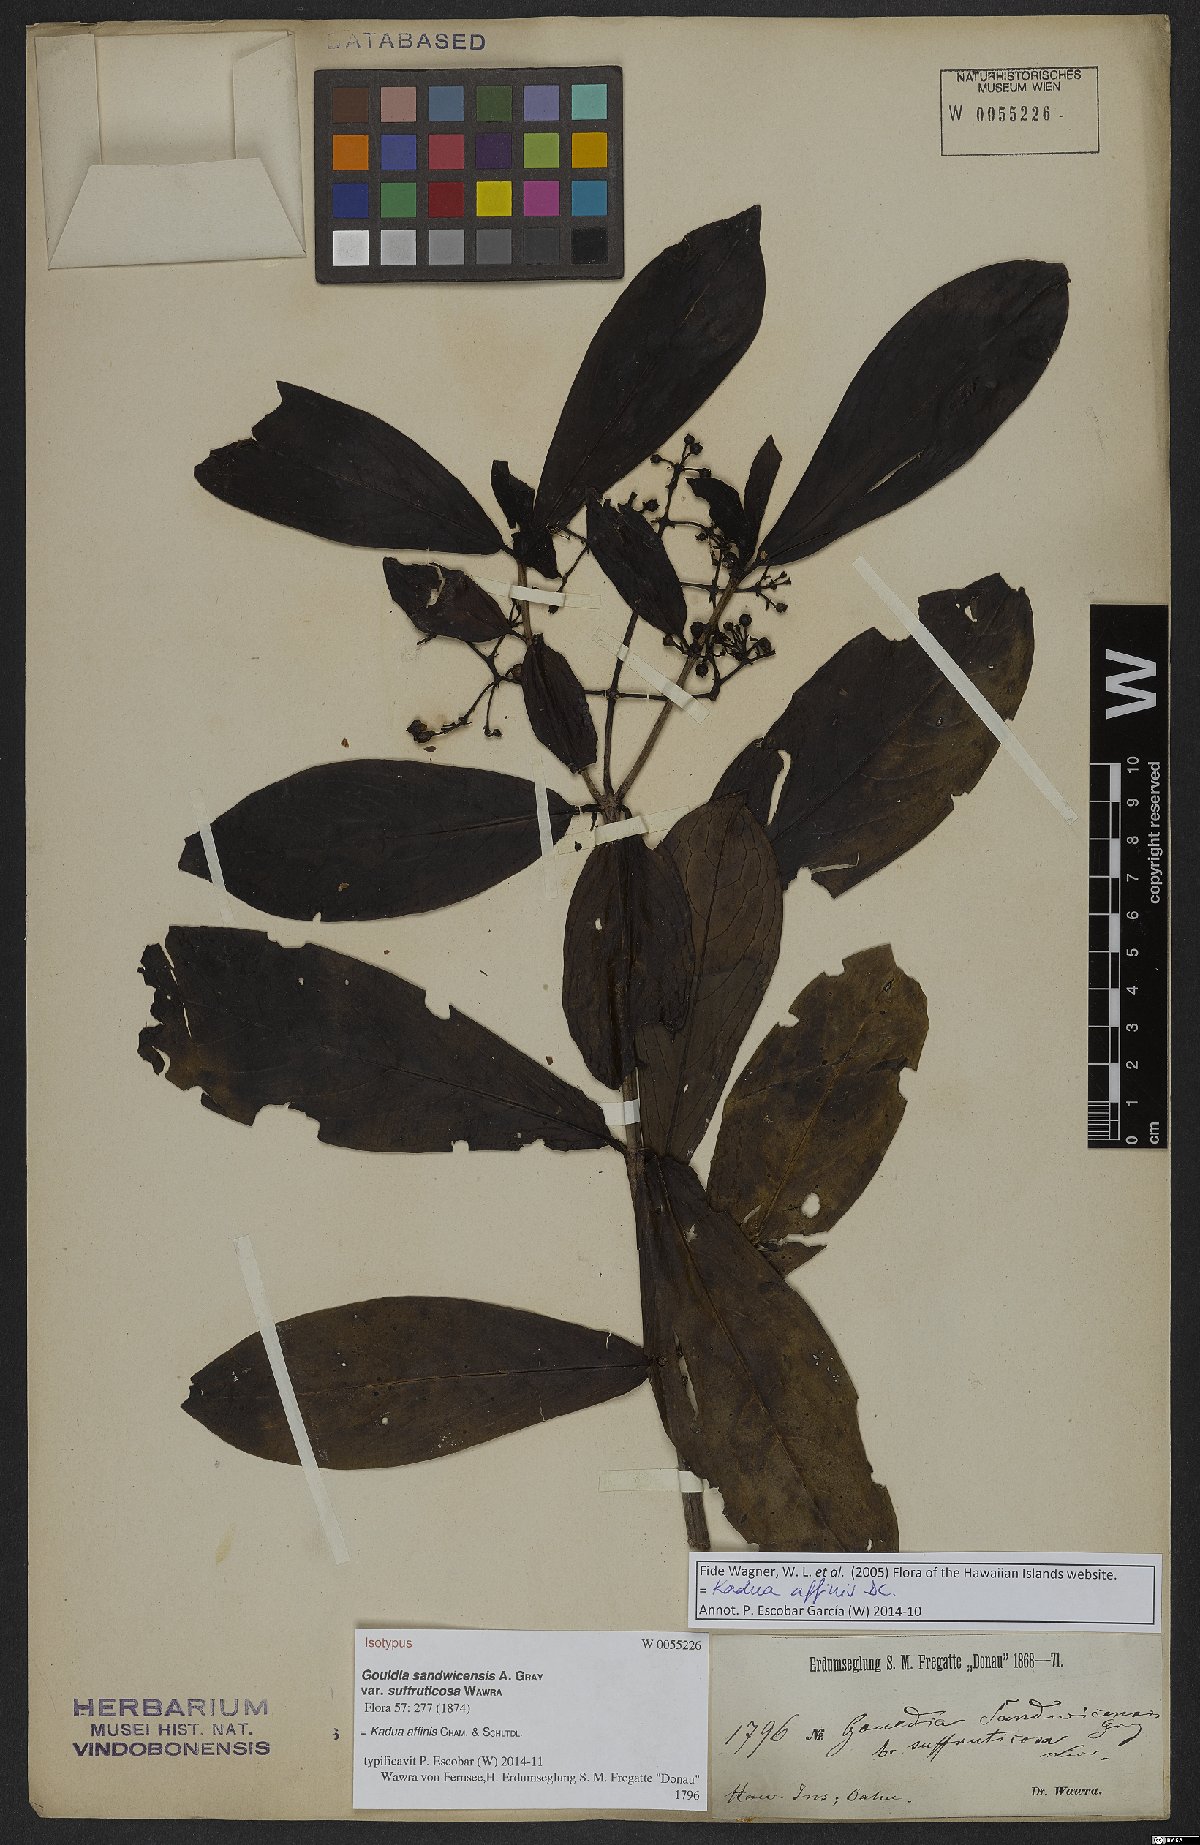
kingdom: Plantae
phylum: Tracheophyta
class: Magnoliopsida
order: Gentianales
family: Rubiaceae
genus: Kadua
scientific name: Kadua affinis
